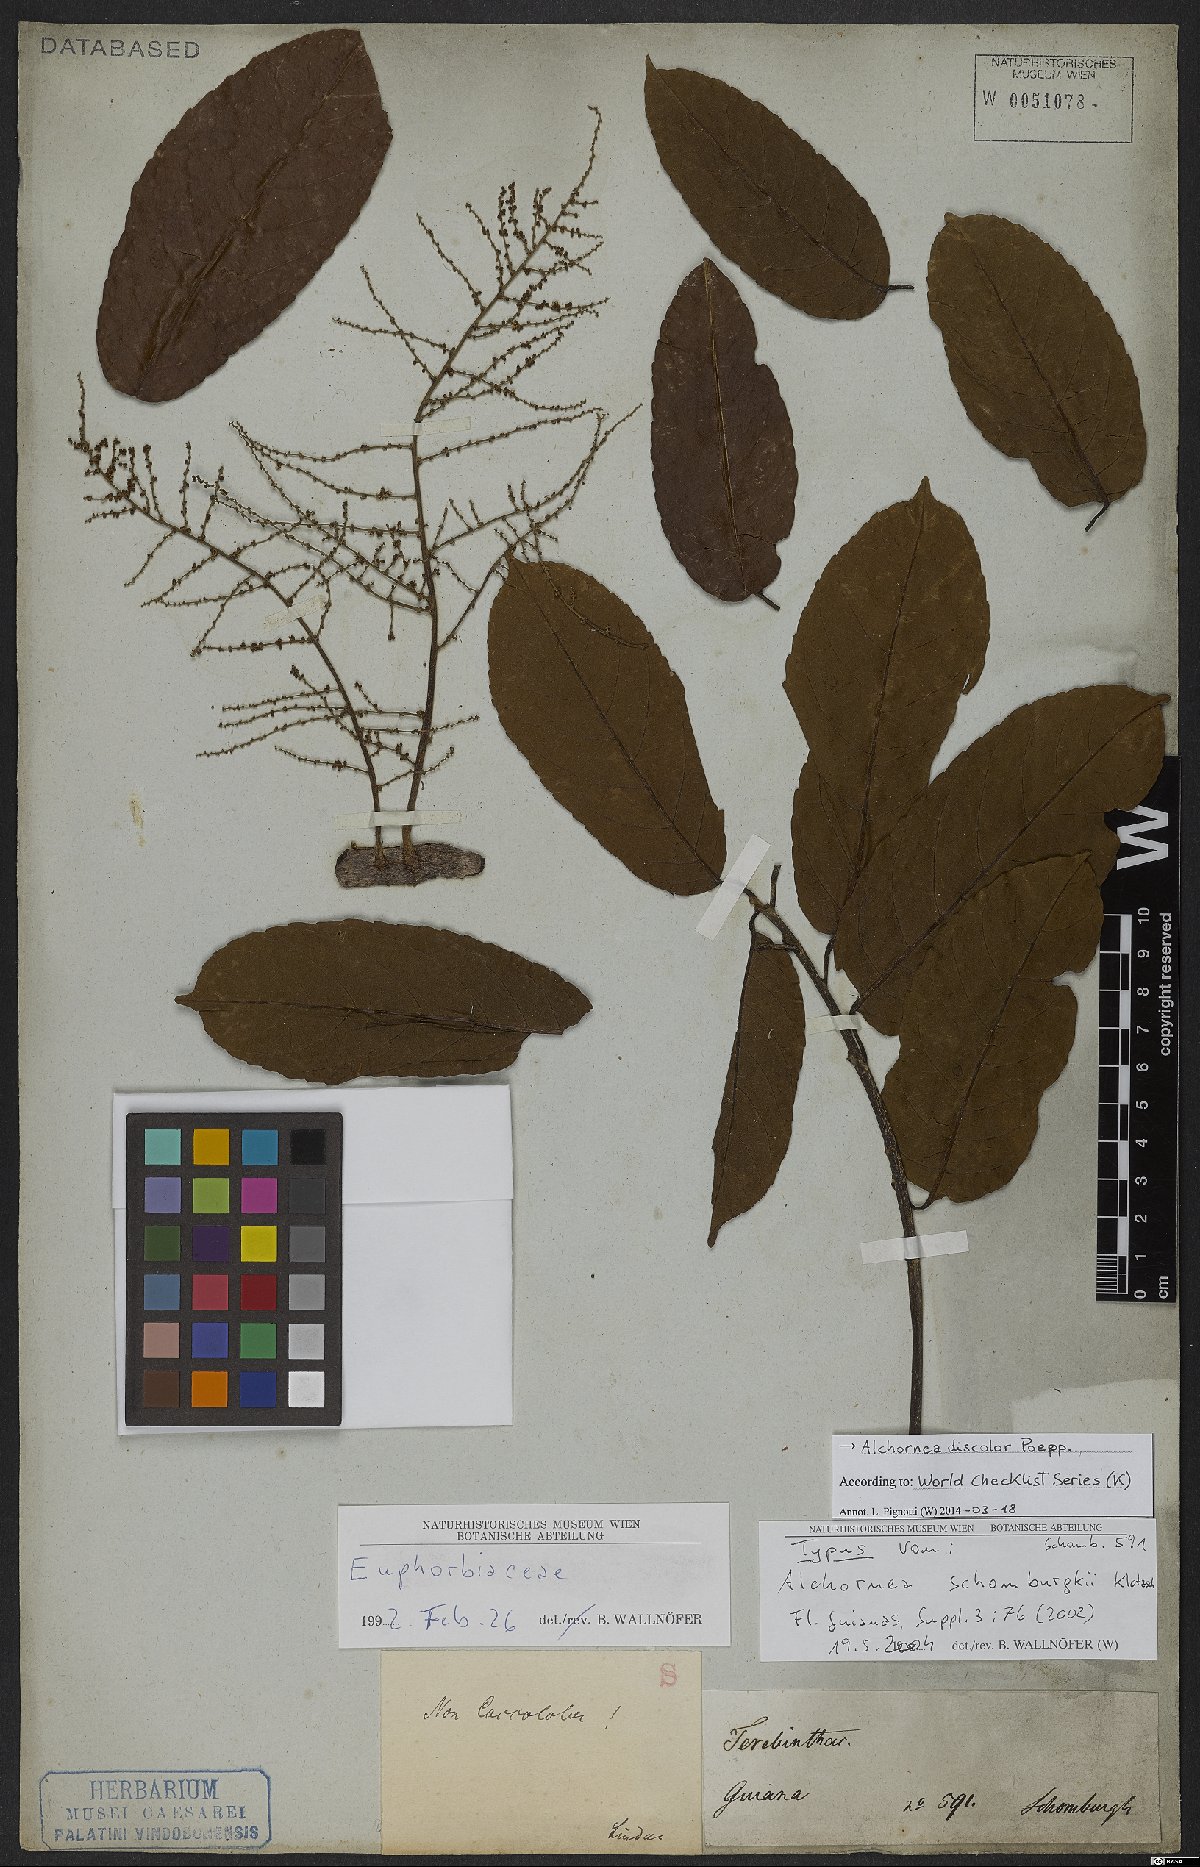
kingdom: Plantae
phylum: Tracheophyta
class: Magnoliopsida
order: Malpighiales
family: Euphorbiaceae
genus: Alchornea
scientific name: Alchornea discolor
